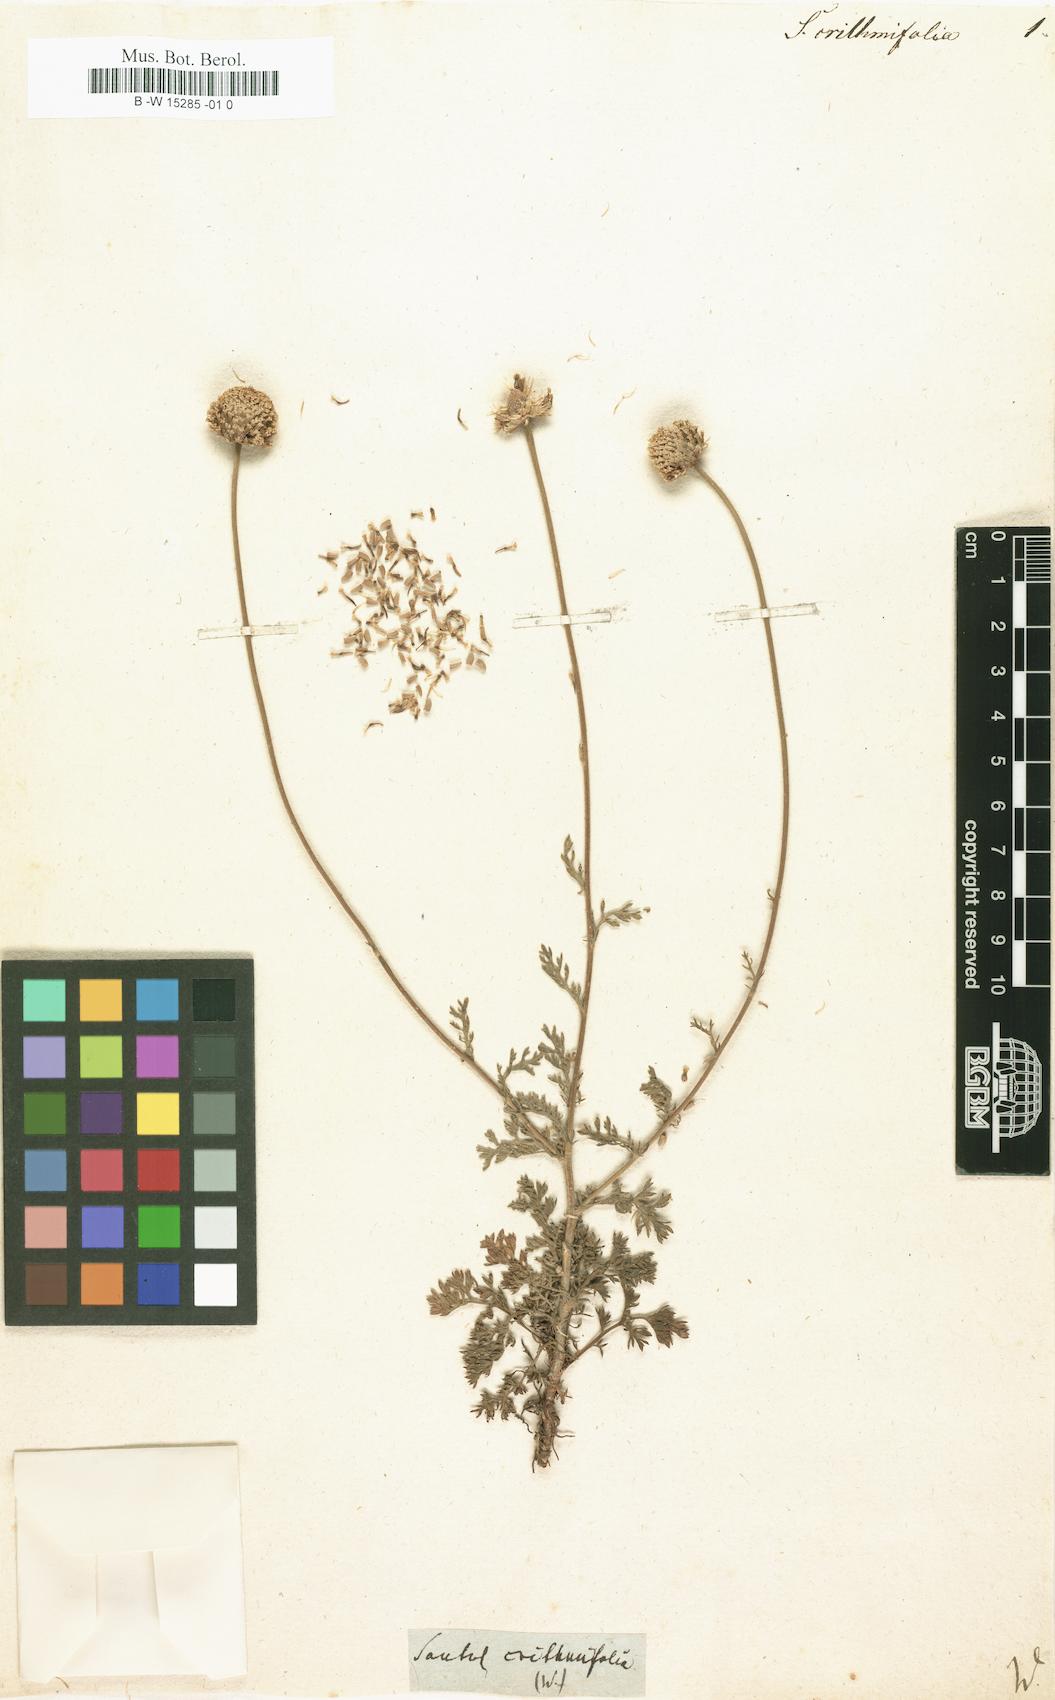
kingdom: Plantae
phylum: Tracheophyta
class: Magnoliopsida
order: Asterales
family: Asteraceae
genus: Santolina
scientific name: Santolina crithmifolia
